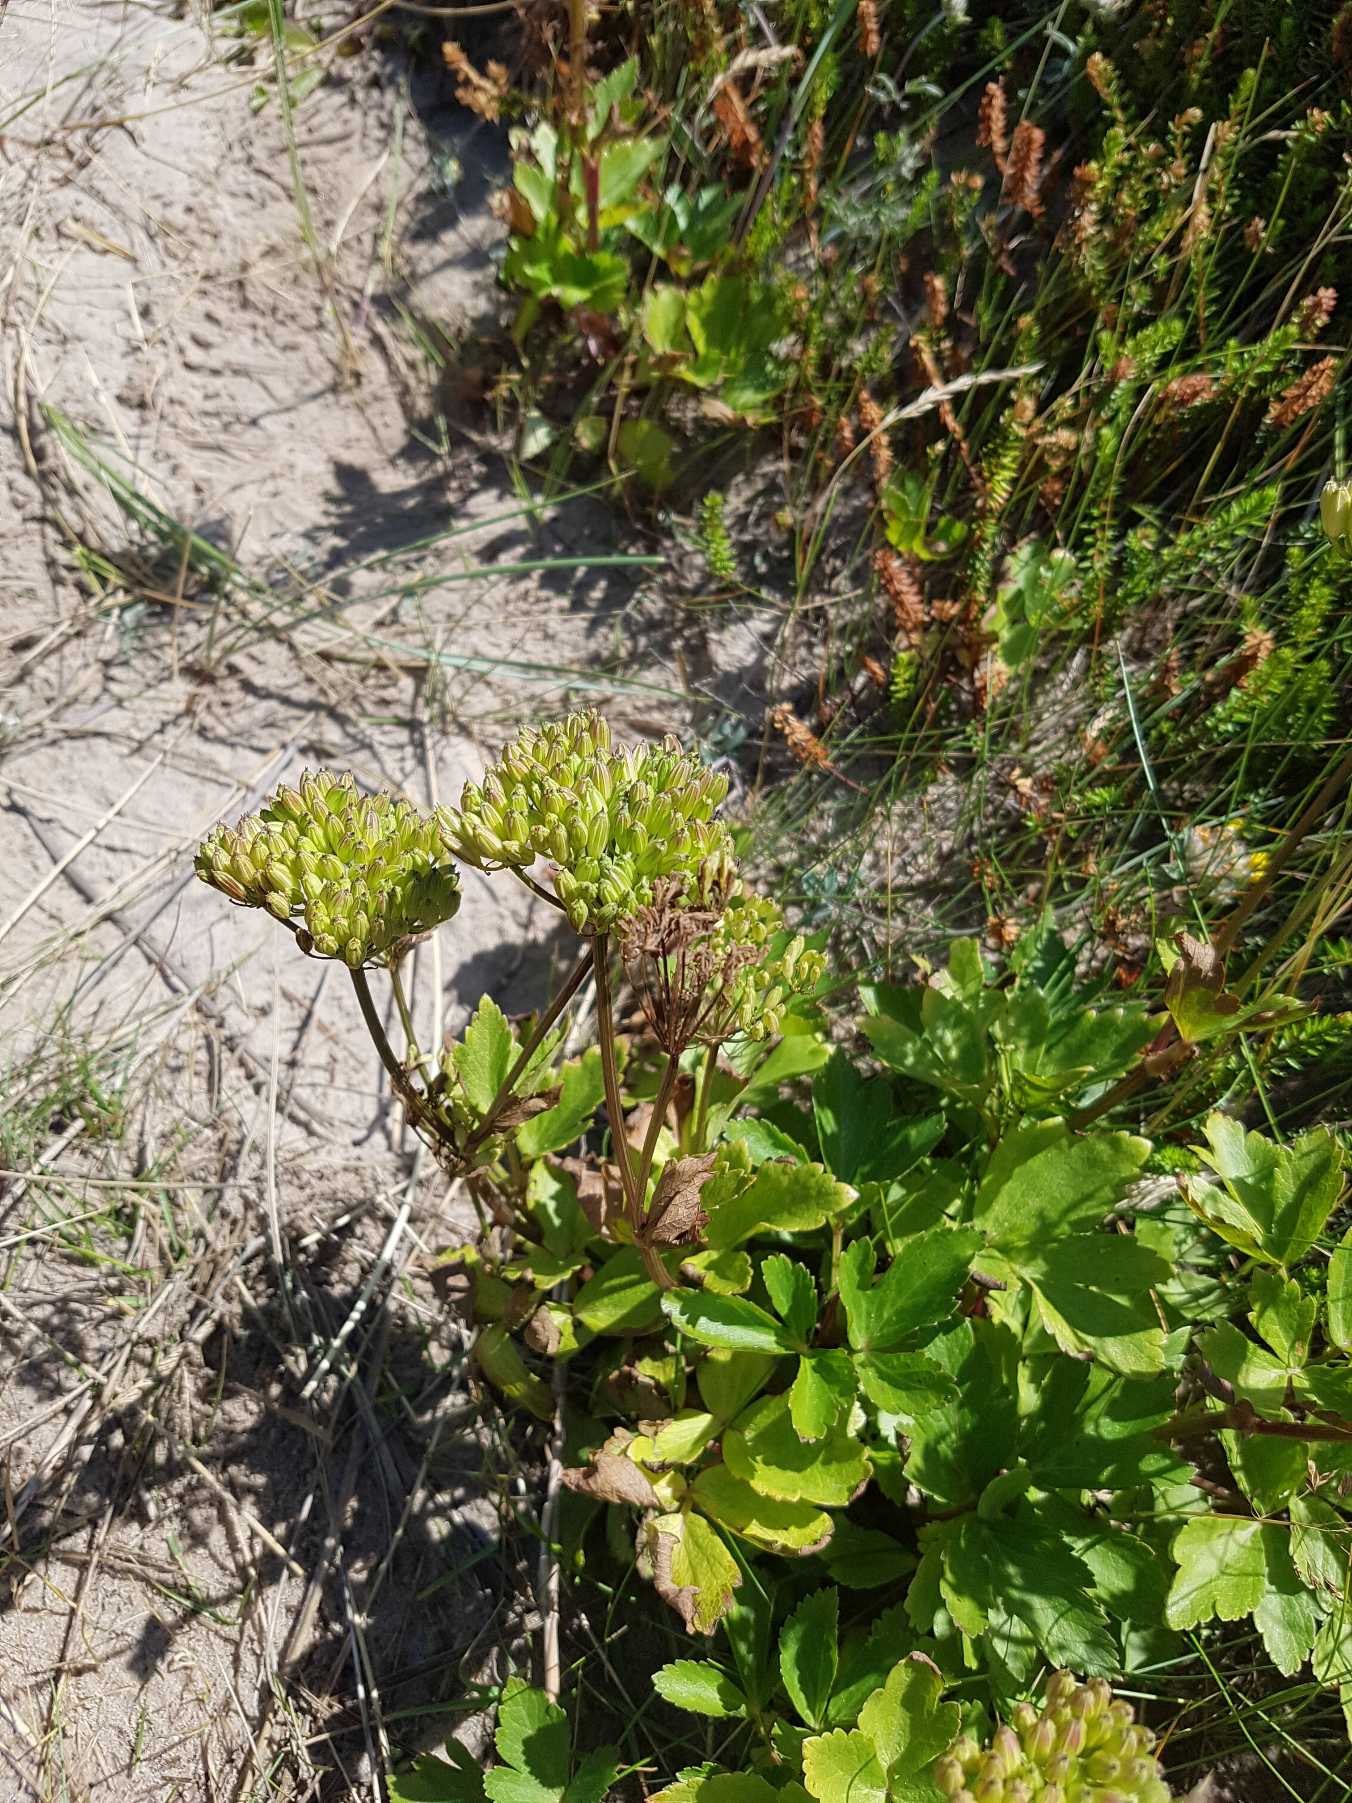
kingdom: Plantae
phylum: Tracheophyta
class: Magnoliopsida
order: Apiales
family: Apiaceae
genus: Ligusticum
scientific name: Ligusticum scothicum
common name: Skotsk lostilk
